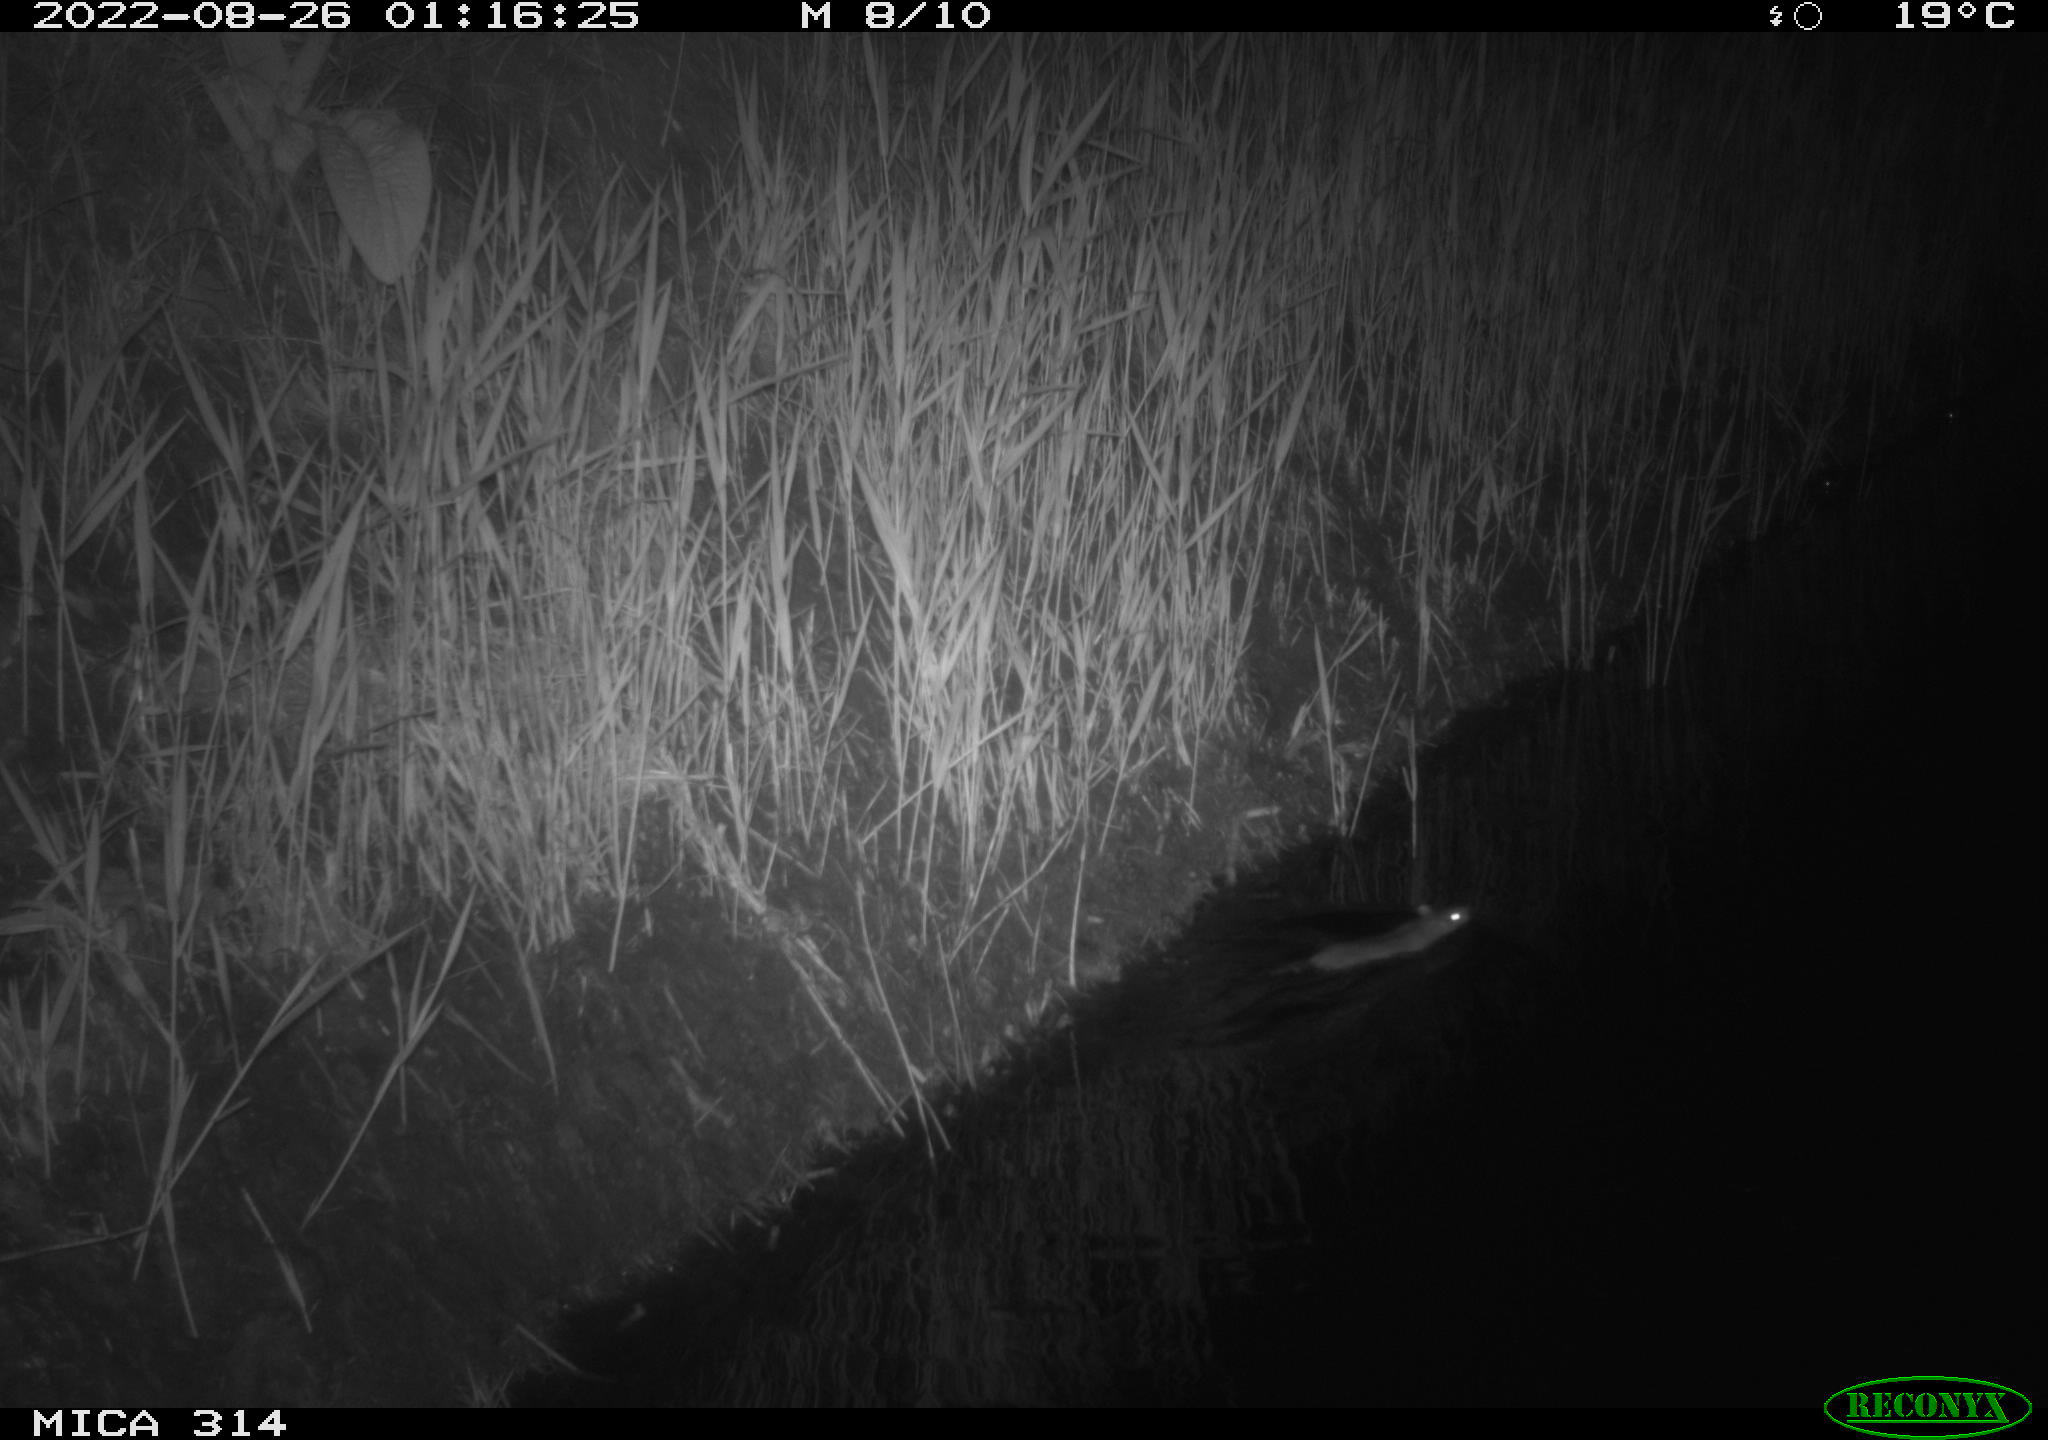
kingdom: Animalia
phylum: Chordata
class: Mammalia
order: Rodentia
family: Muridae
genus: Rattus
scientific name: Rattus norvegicus
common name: Brown rat
